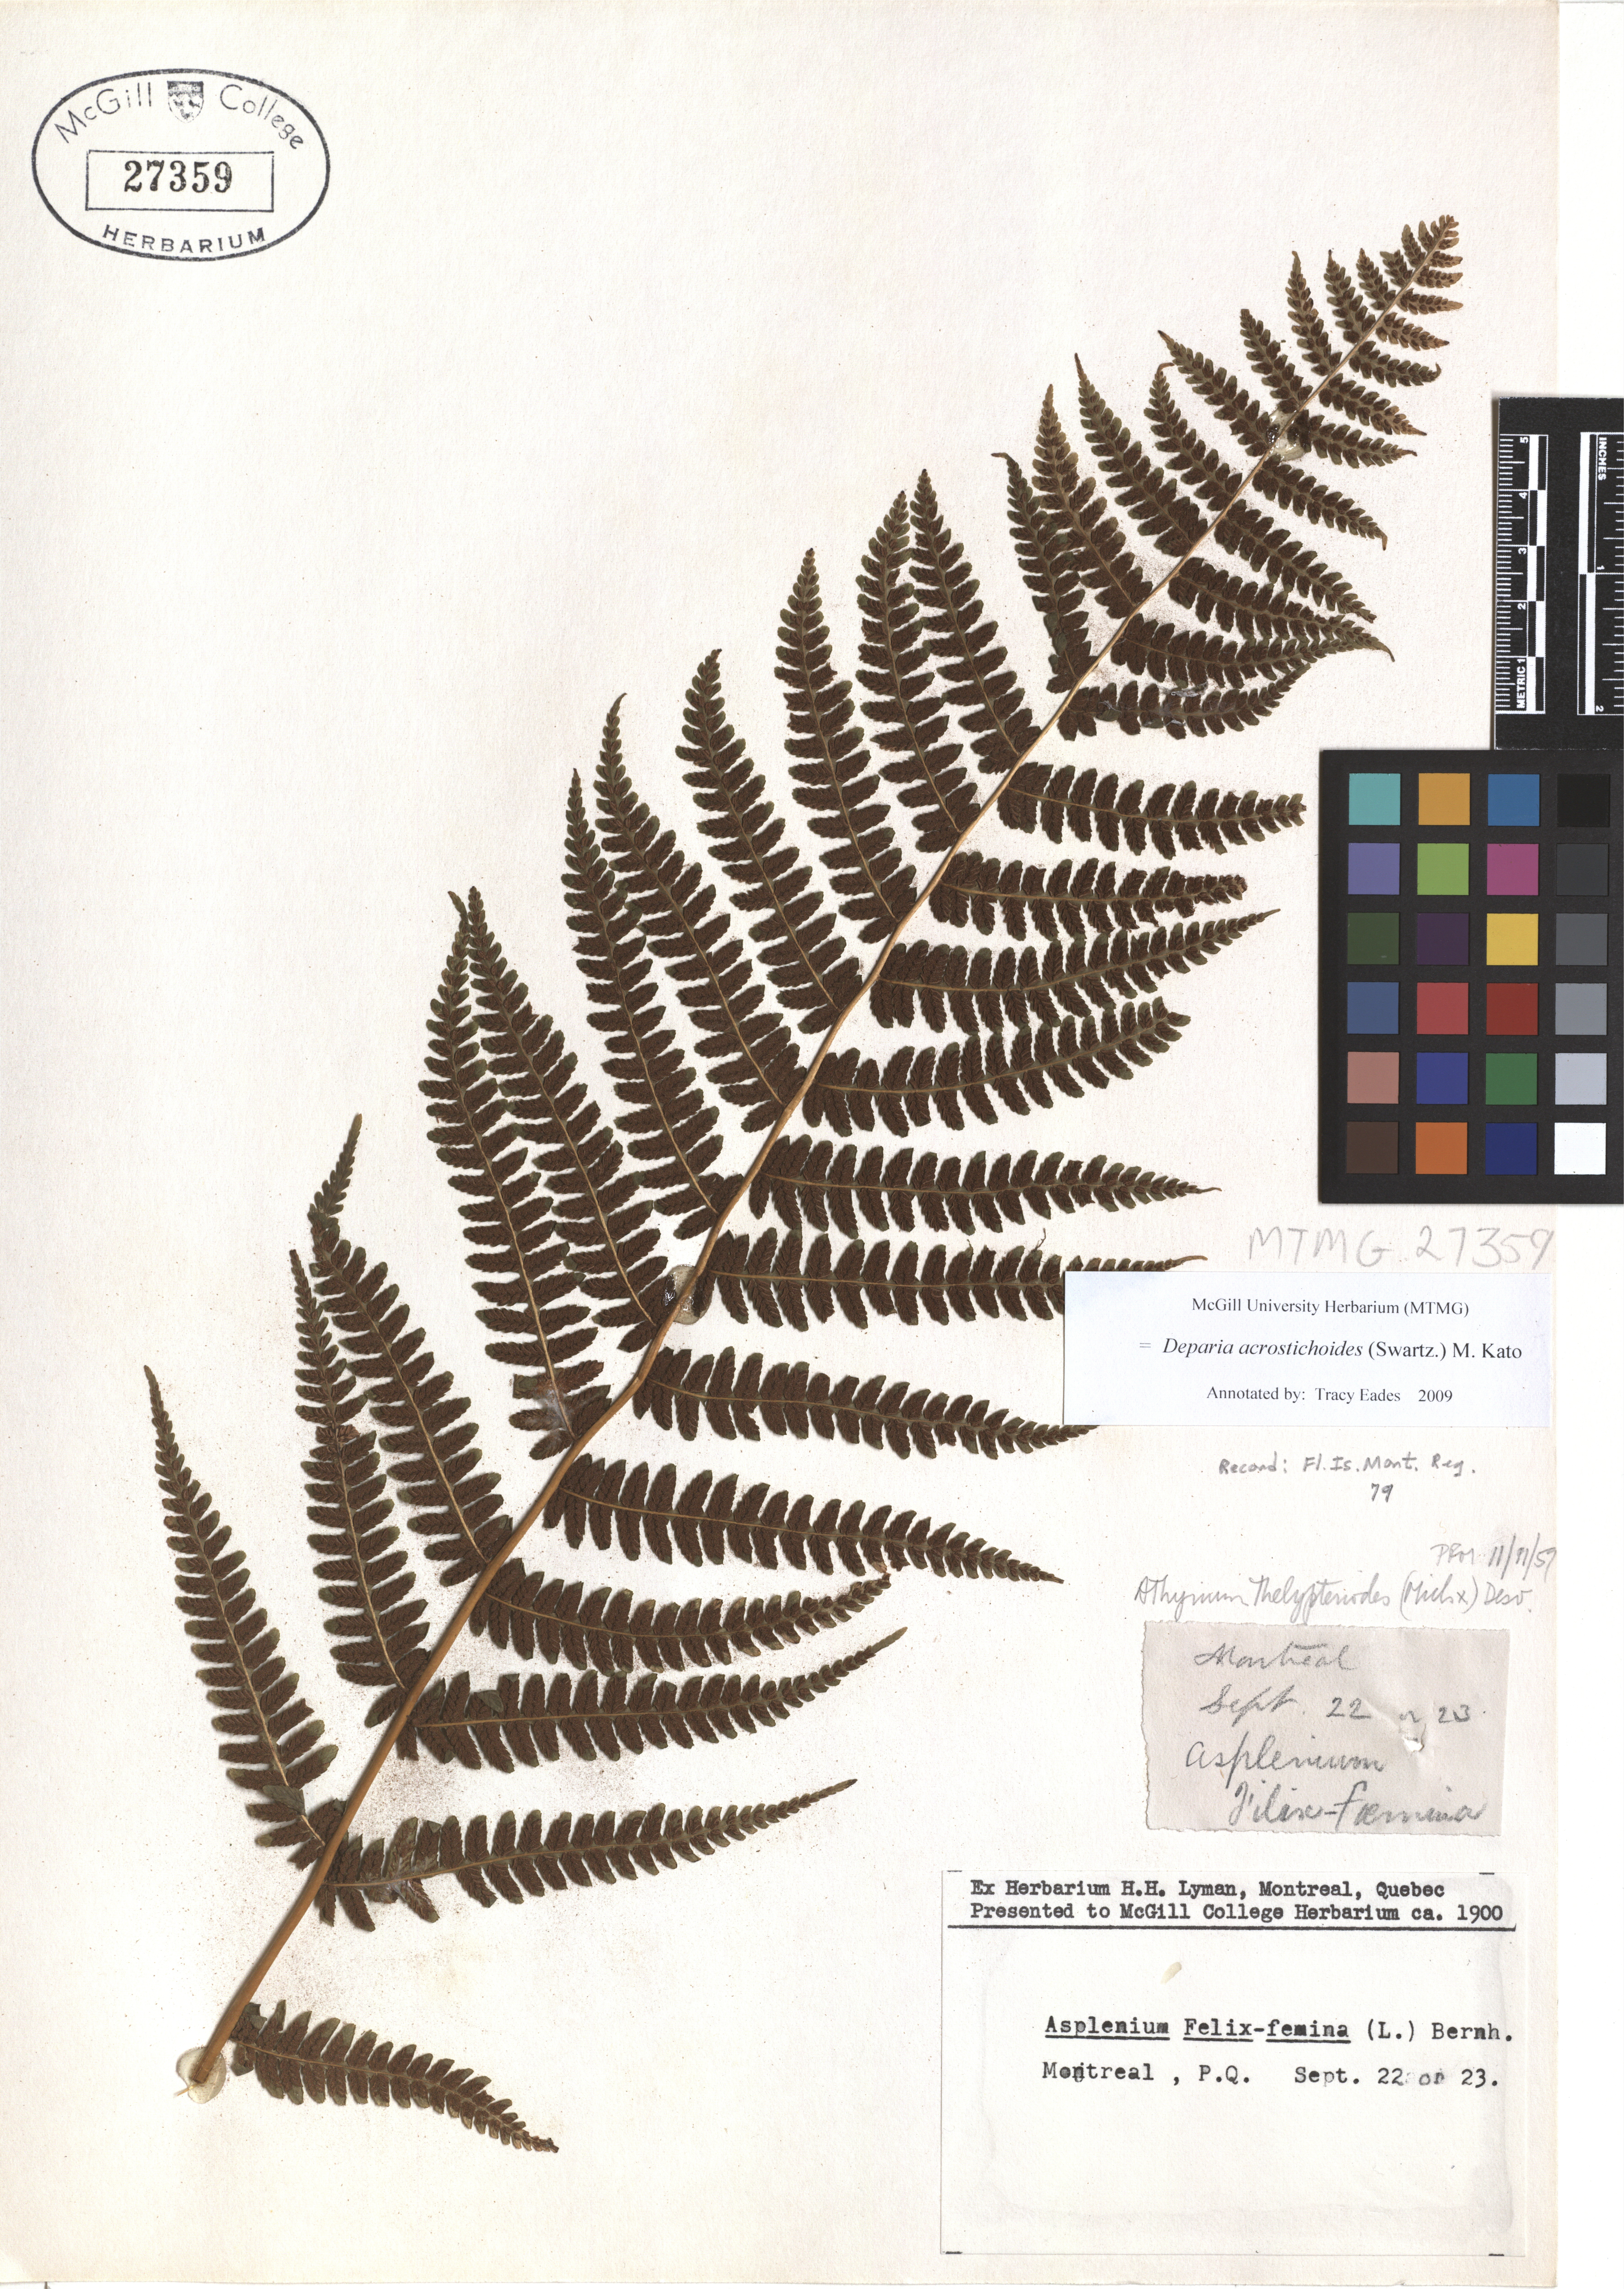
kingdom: Plantae
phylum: Tracheophyta
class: Polypodiopsida
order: Polypodiales
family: Athyriaceae
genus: Deparia
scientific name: Deparia acrostichoides
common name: Silver false spleenwort
